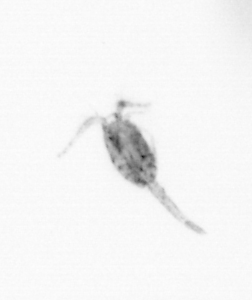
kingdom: Animalia
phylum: Arthropoda
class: Copepoda
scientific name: Copepoda
